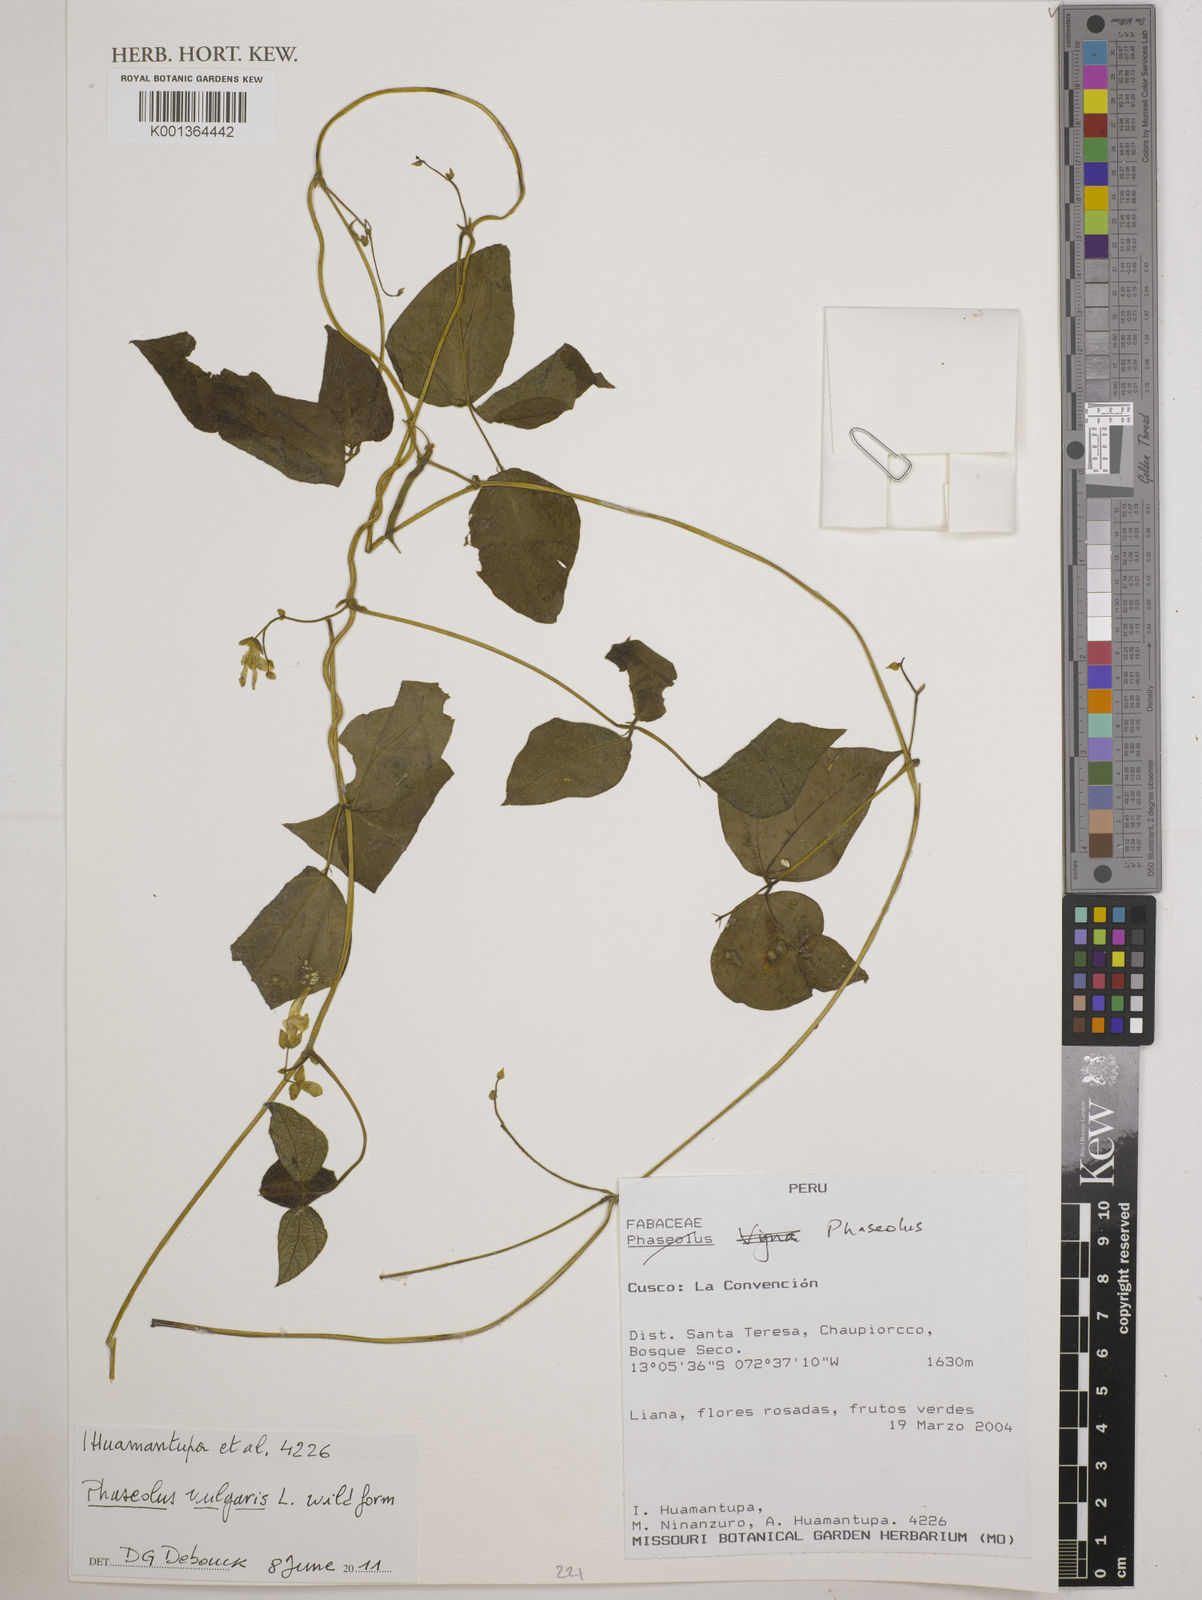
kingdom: Plantae
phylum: Tracheophyta
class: Magnoliopsida
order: Fabales
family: Fabaceae
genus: Phaseolus
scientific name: Phaseolus vulgaris
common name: Bean
